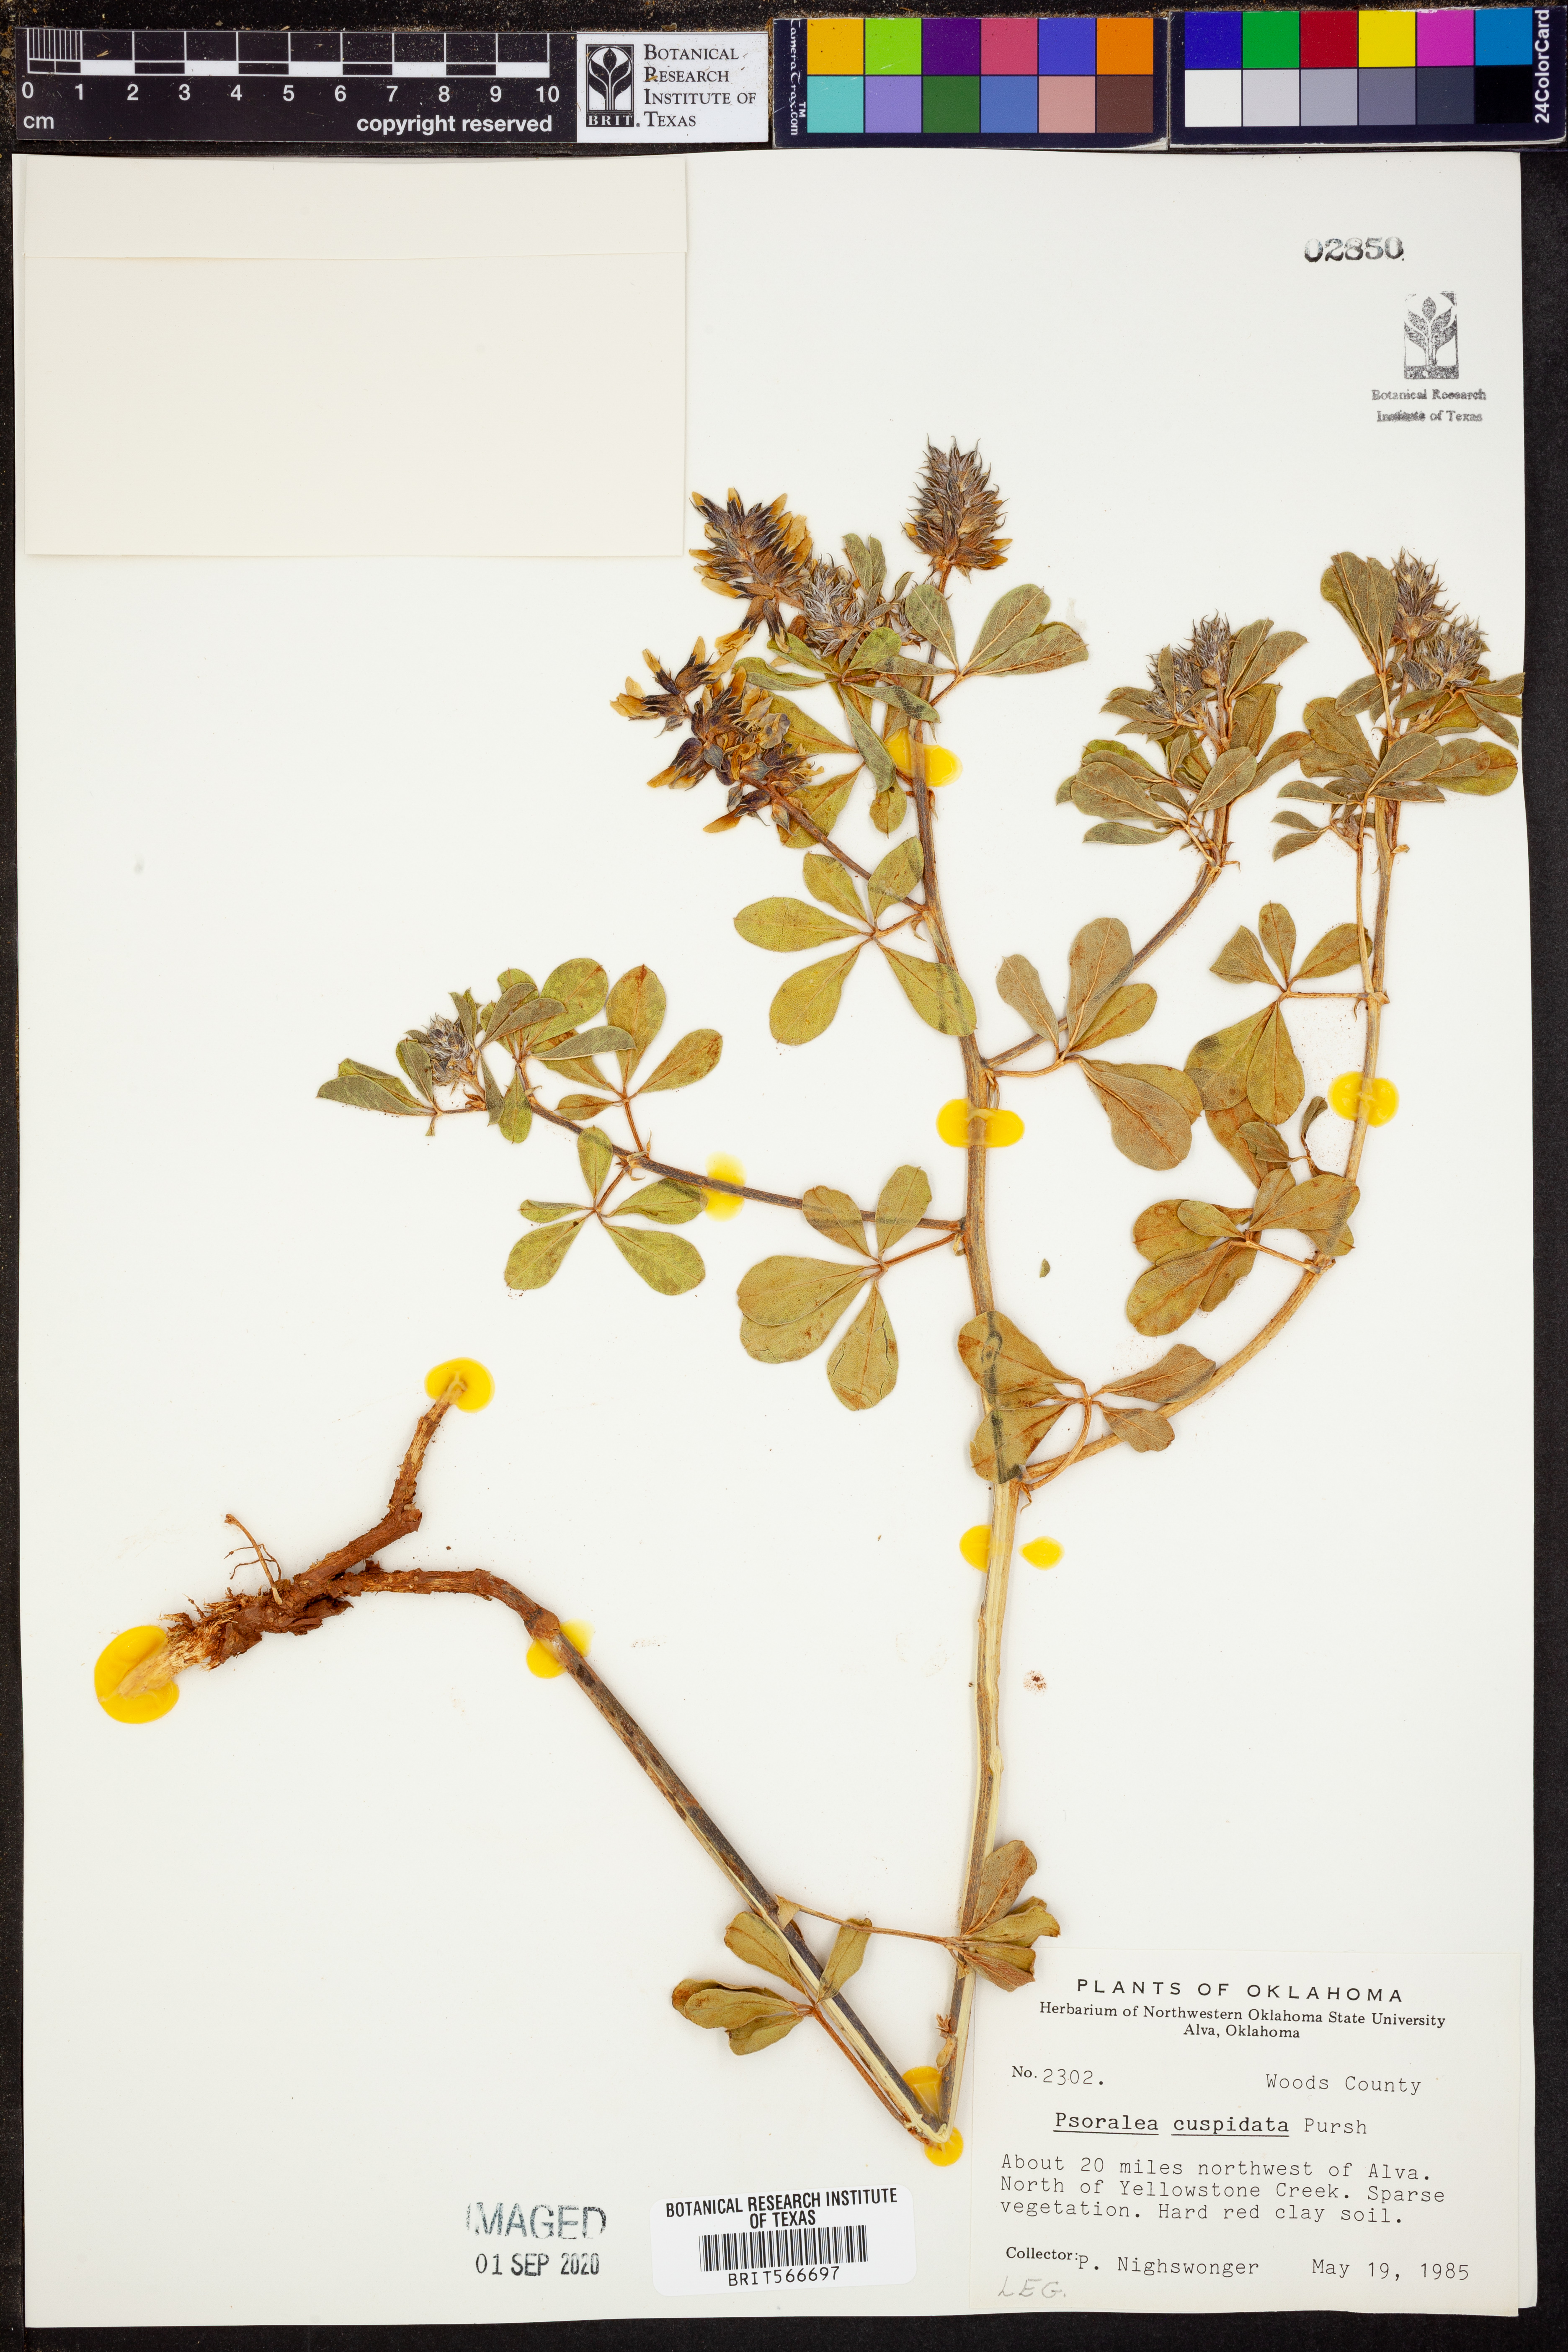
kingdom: Plantae
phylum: Tracheophyta
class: Magnoliopsida
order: Fabales
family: Fabaceae
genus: Pediomelum
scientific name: Pediomelum cuspidatum
